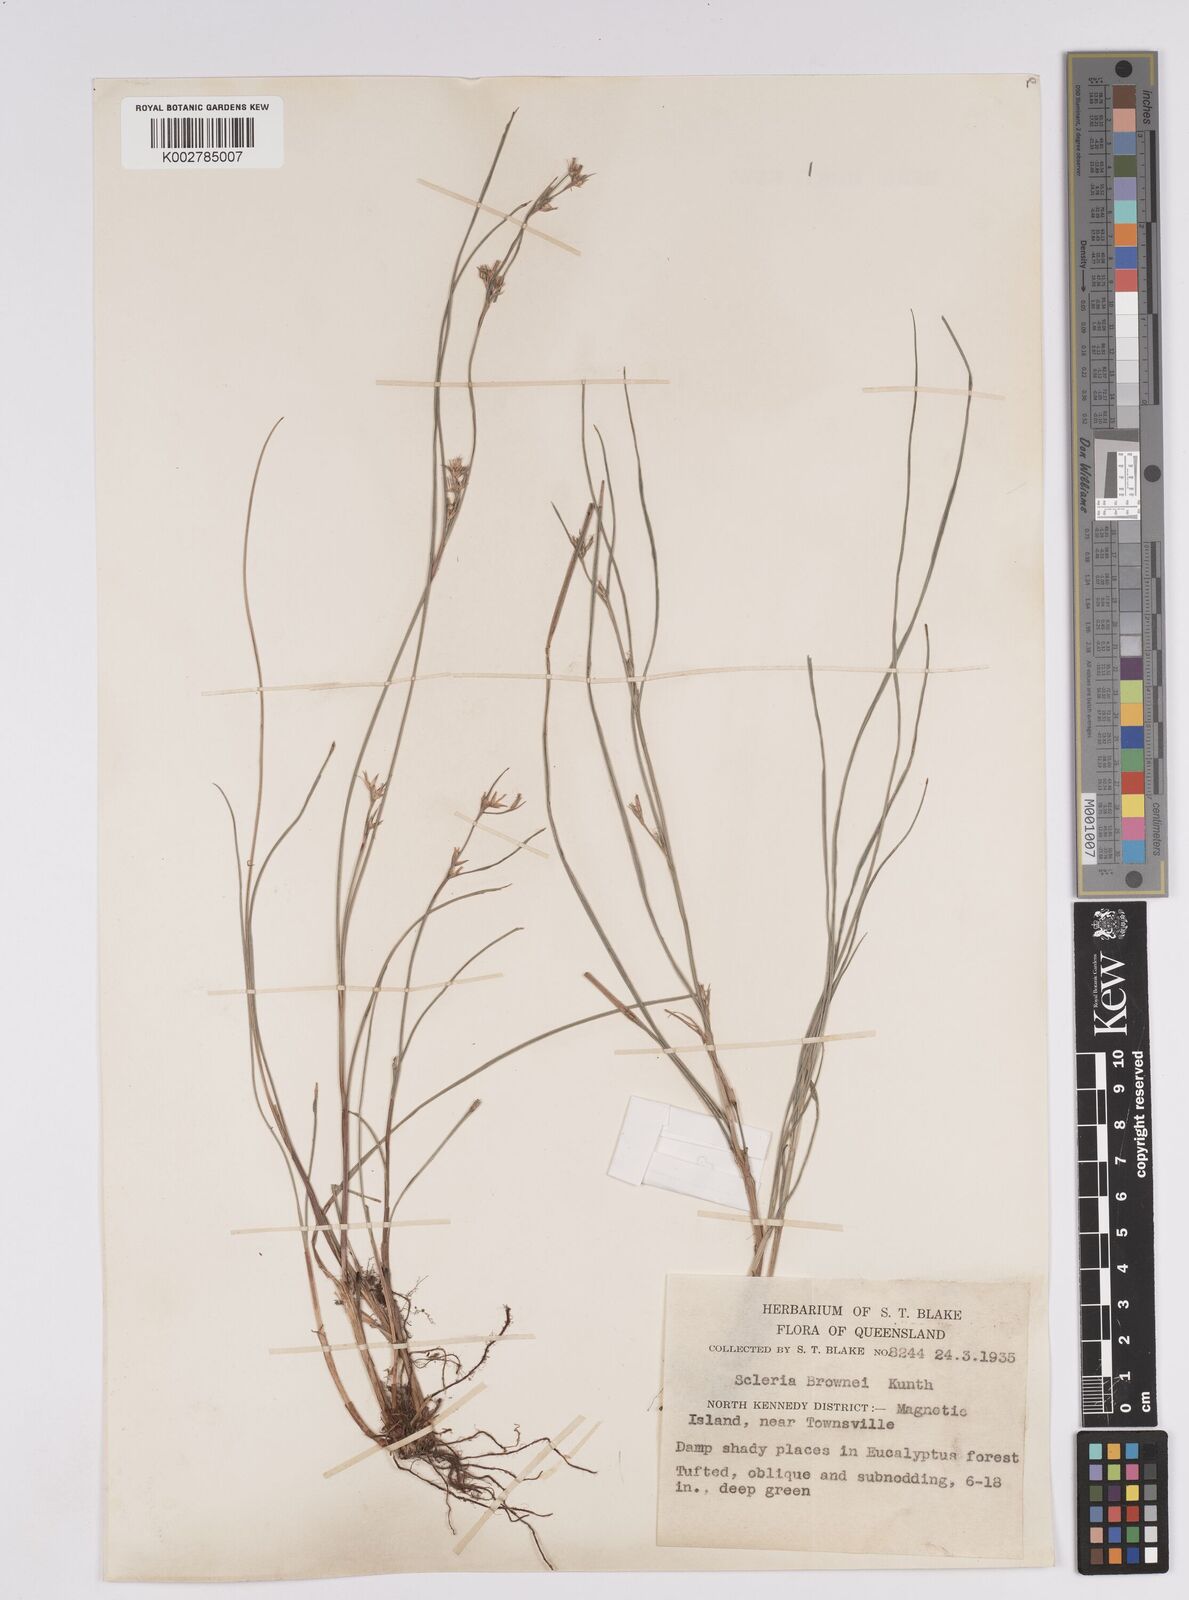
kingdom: Plantae
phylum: Tracheophyta
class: Liliopsida
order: Poales
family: Cyperaceae
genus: Scleria
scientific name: Scleria brownii
